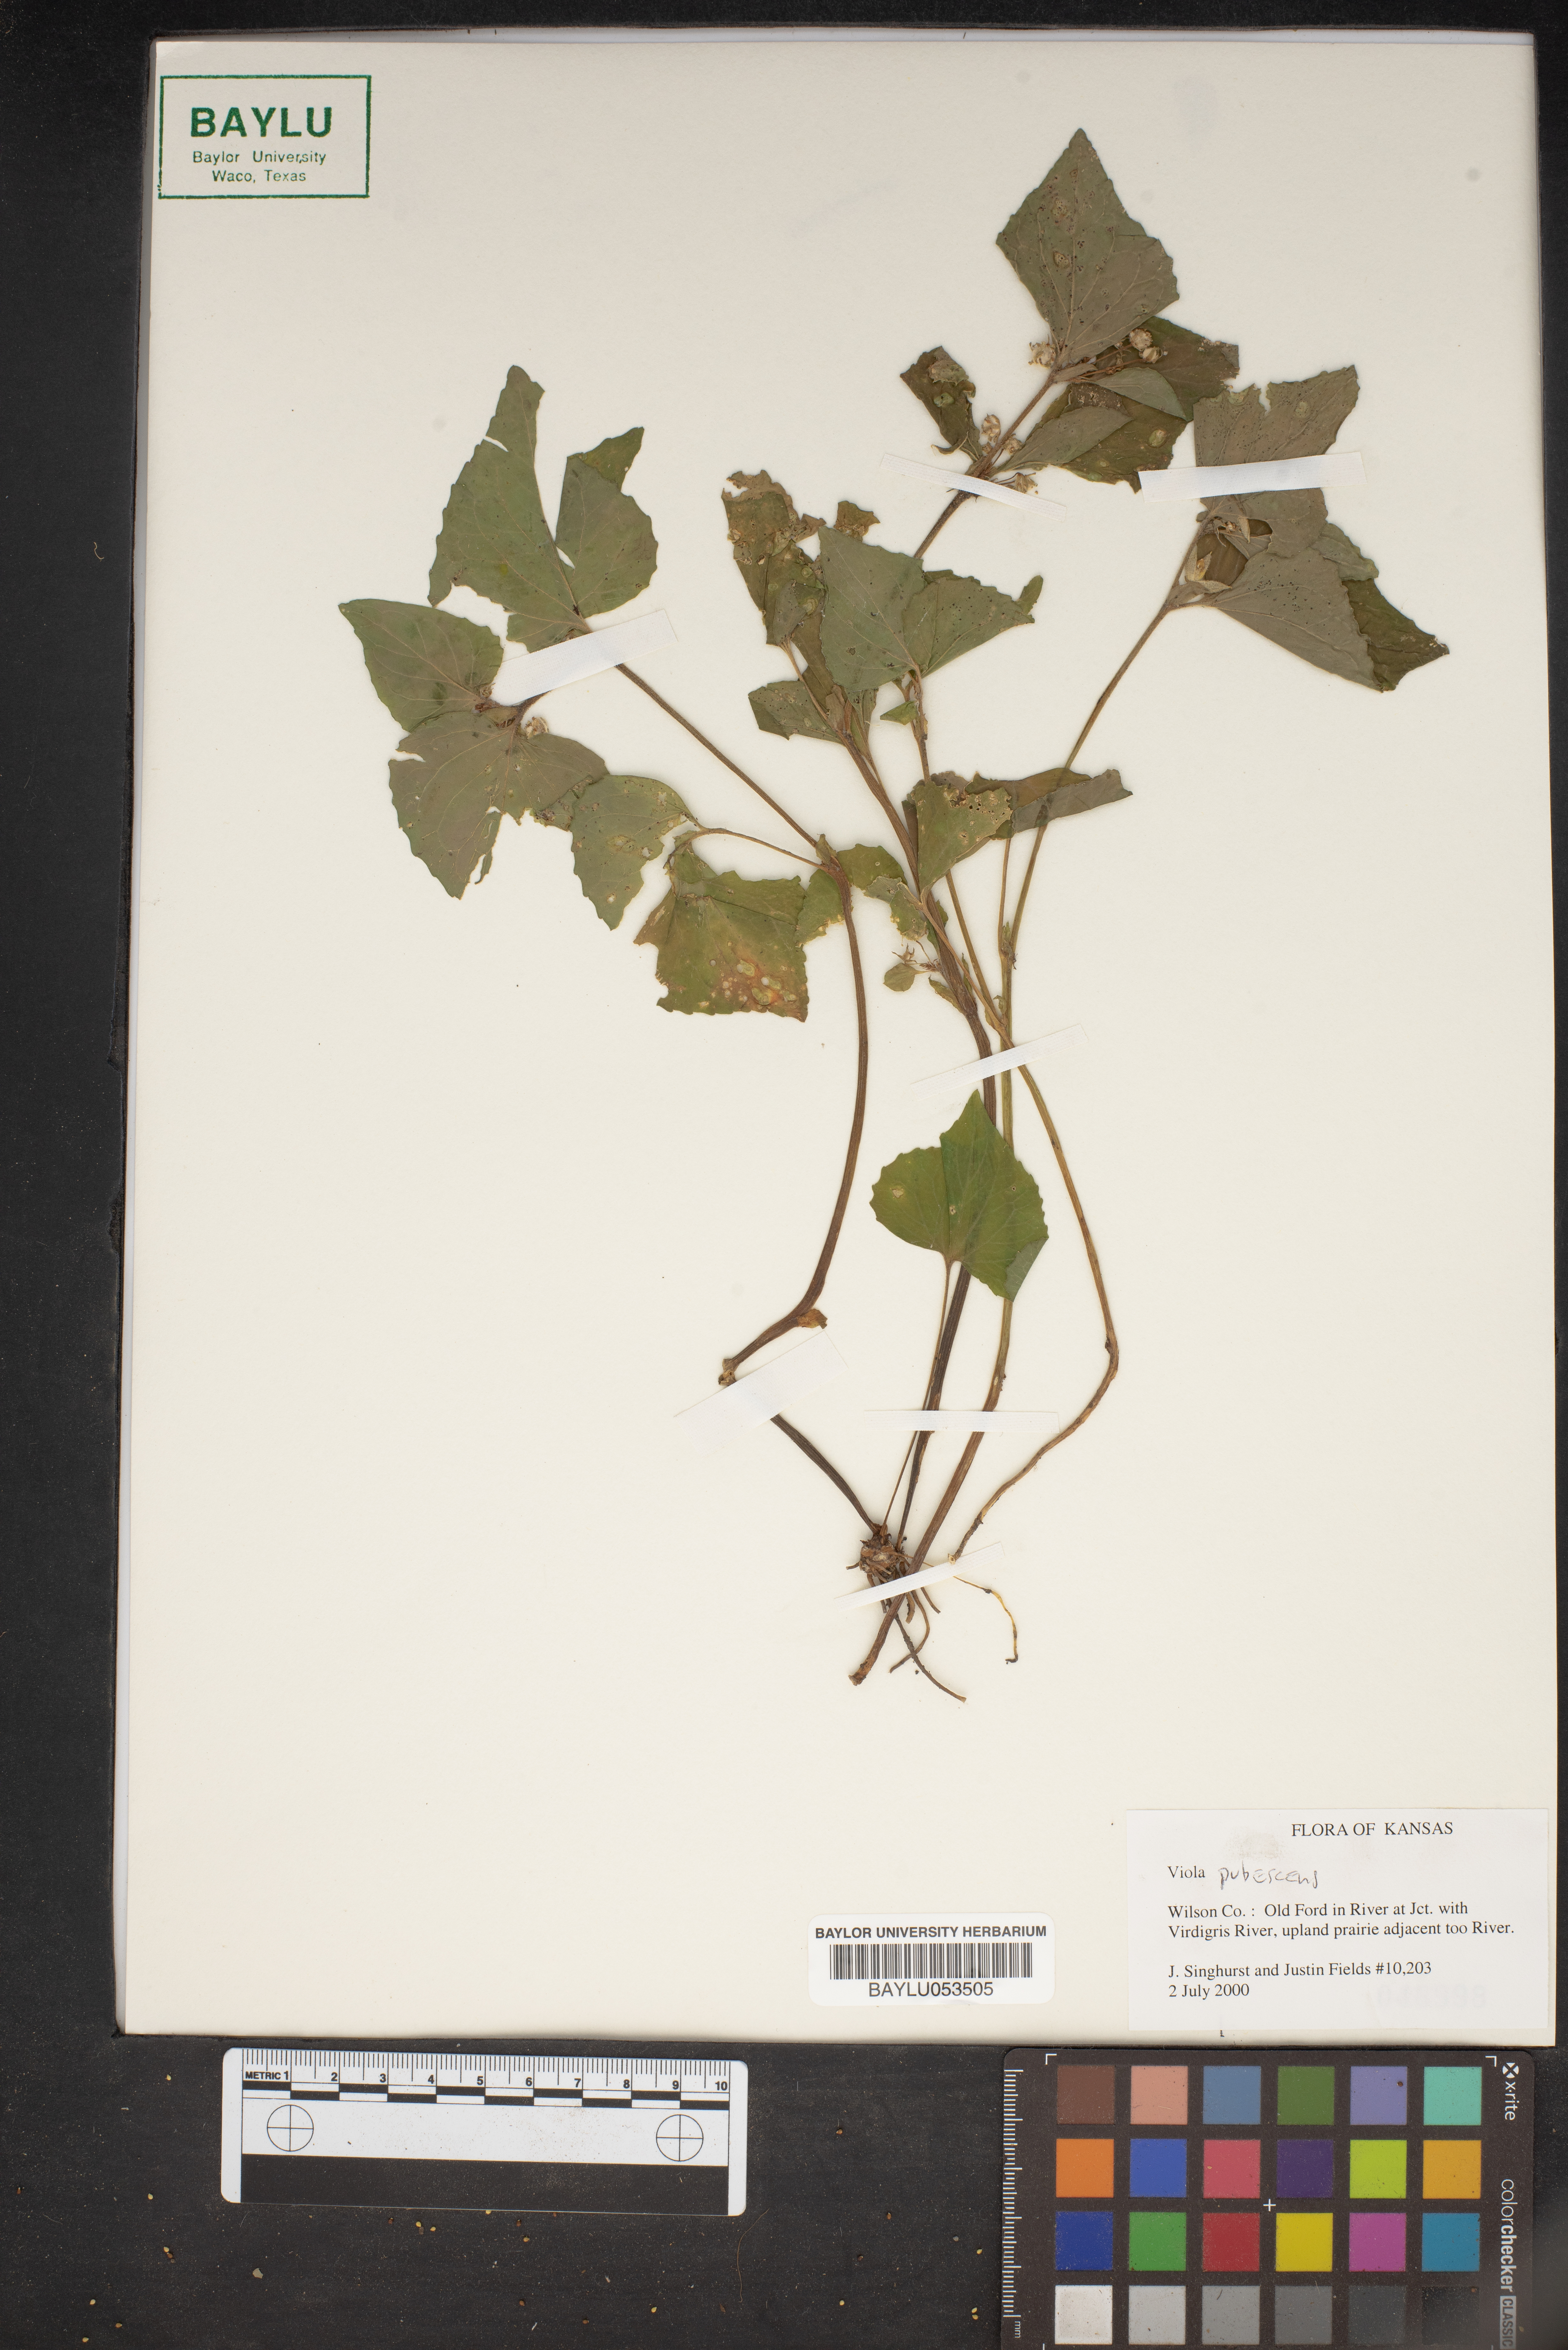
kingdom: Plantae
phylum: Tracheophyta
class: Magnoliopsida
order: Malpighiales
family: Violaceae
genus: Viola
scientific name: Viola pubescens
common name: Yellow forest violet
